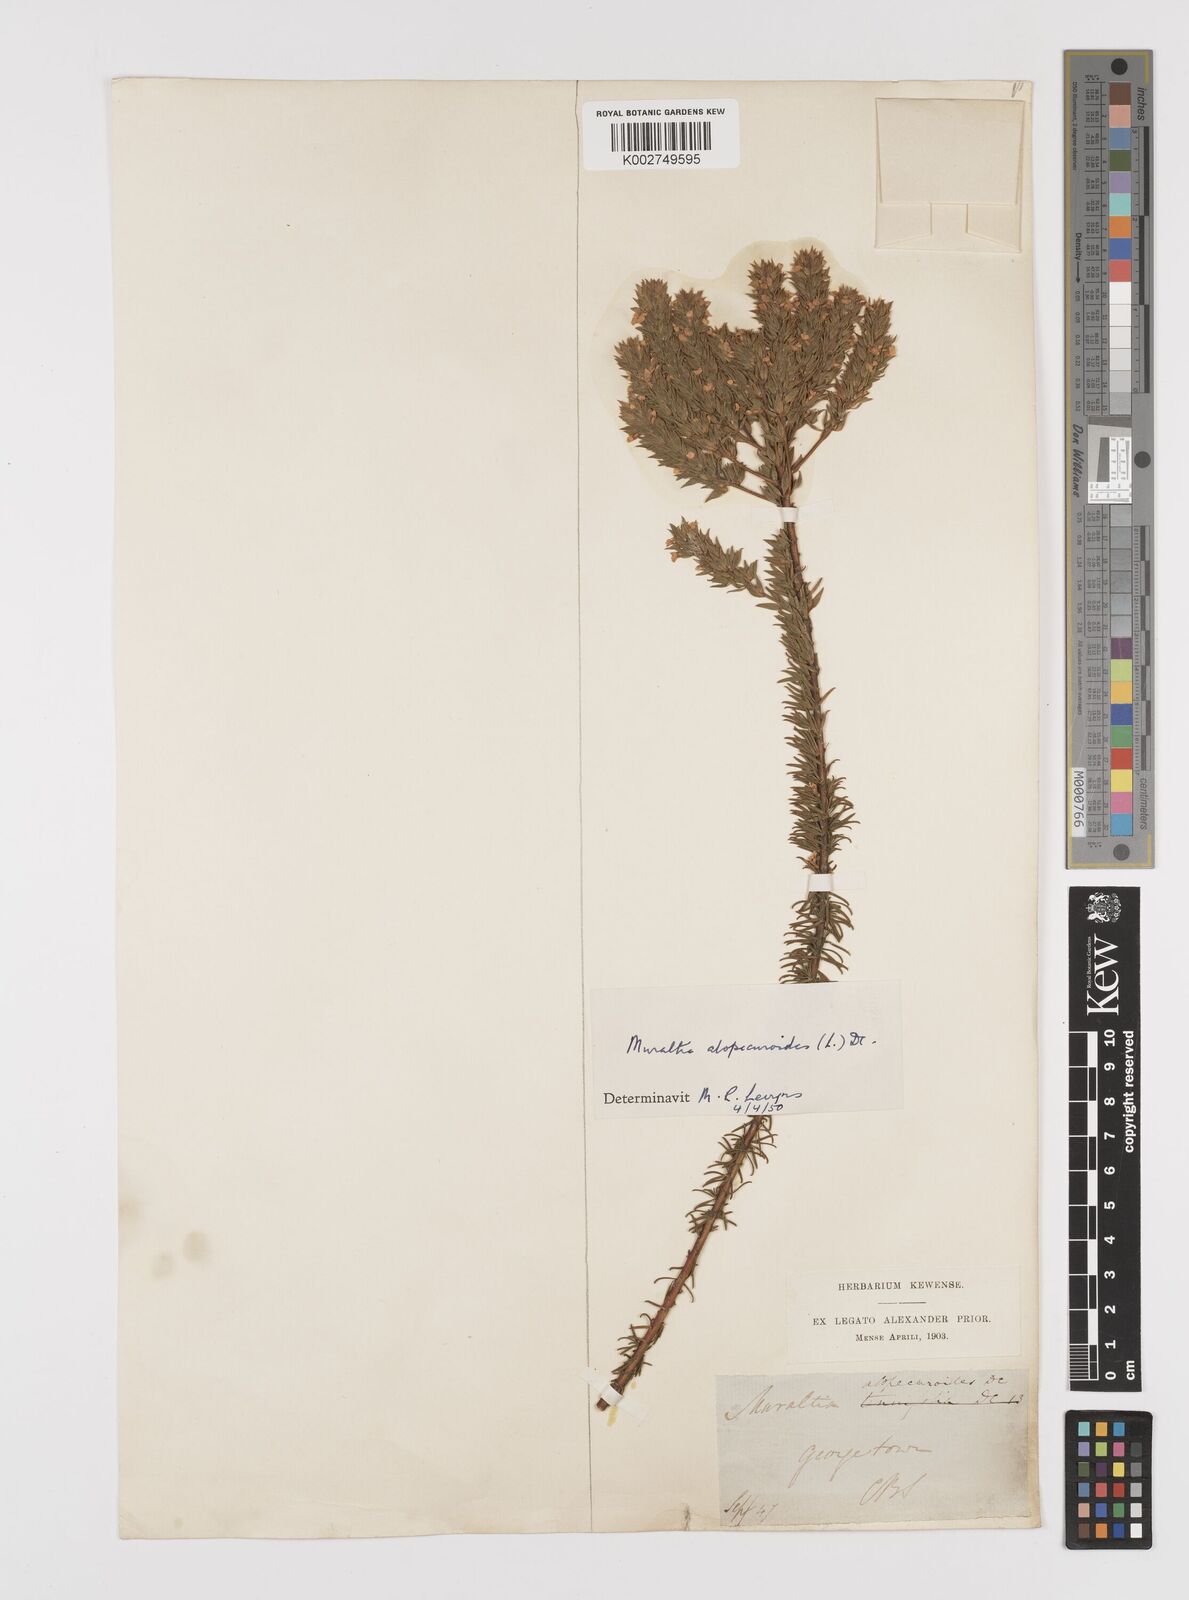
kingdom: Plantae
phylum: Tracheophyta
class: Magnoliopsida
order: Fabales
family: Polygalaceae
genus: Muraltia
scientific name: Muraltia alopecuroides
